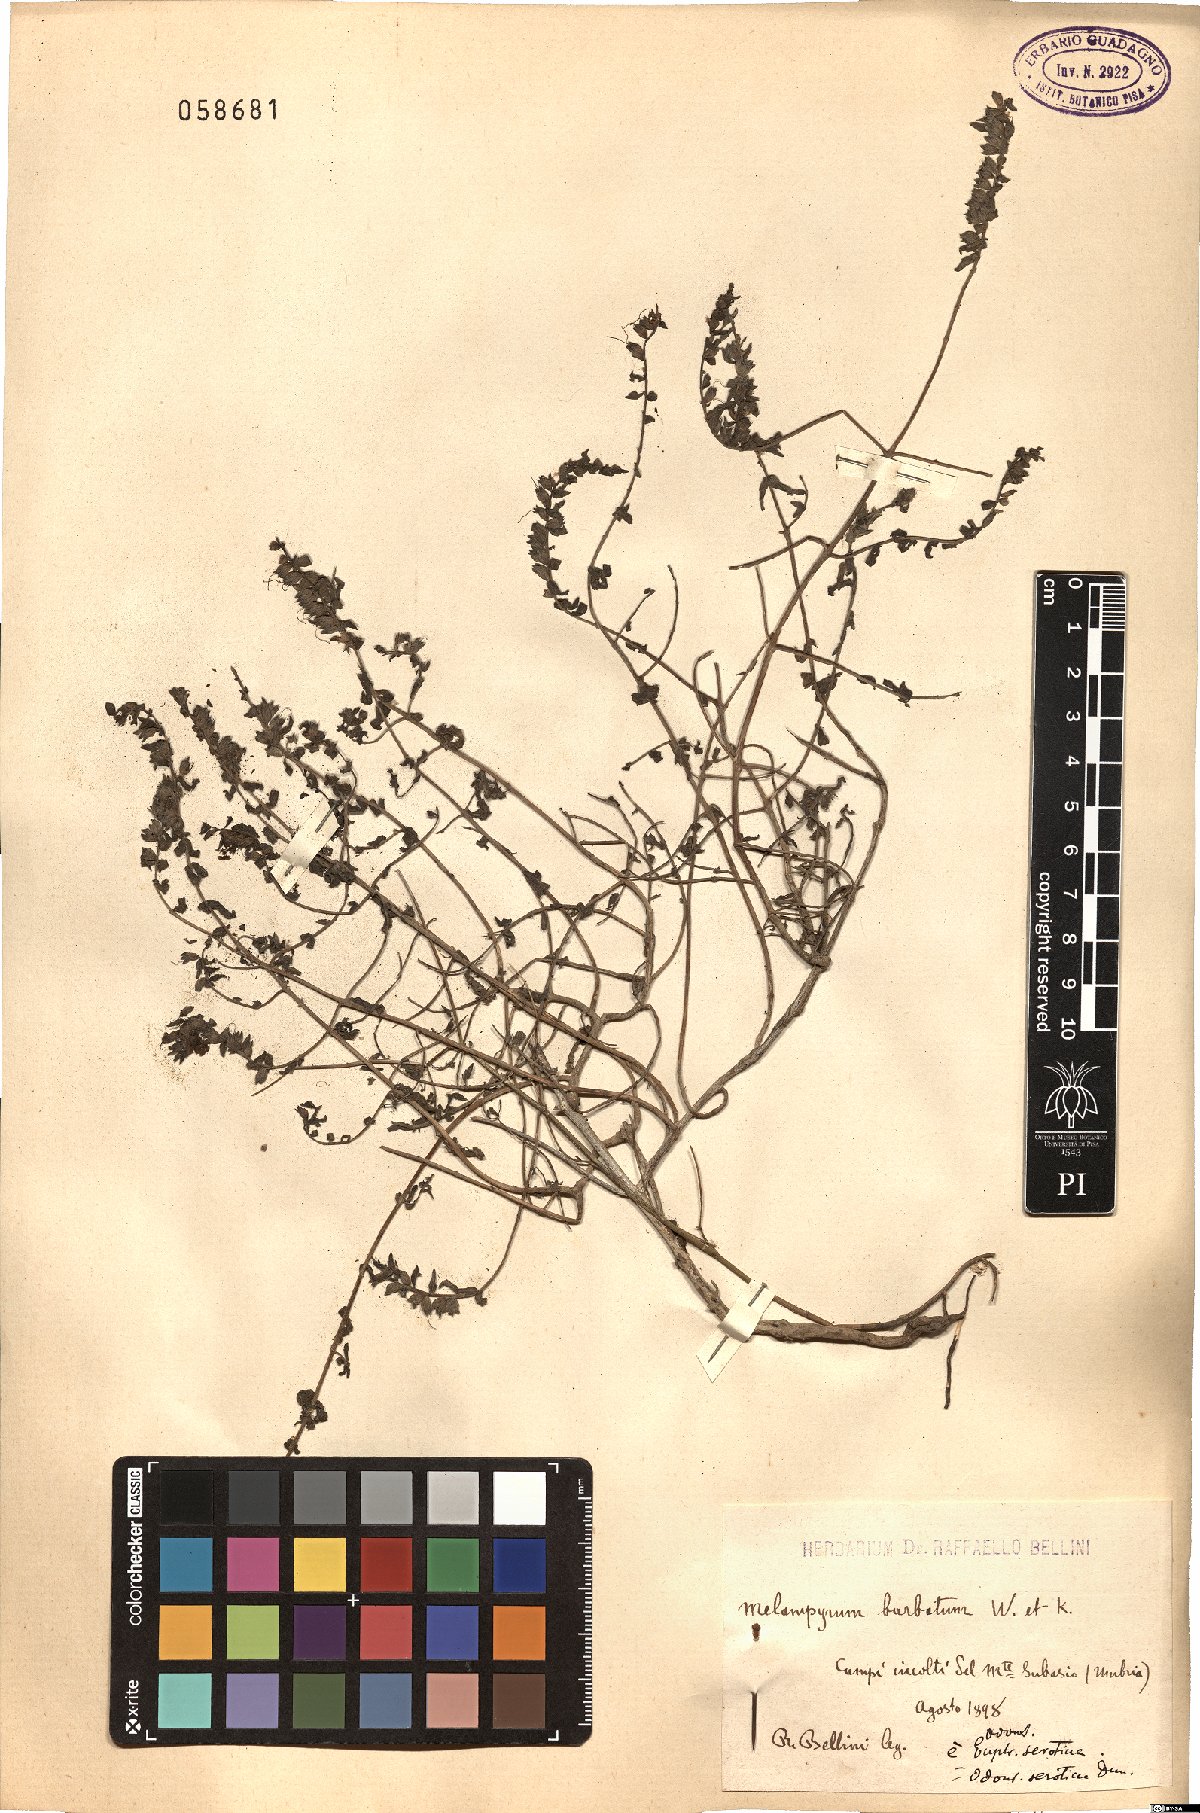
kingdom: Plantae
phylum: Tracheophyta
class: Magnoliopsida
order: Lamiales
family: Orobanchaceae
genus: Odontites
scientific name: Odontites vulgaris
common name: Broomrape
